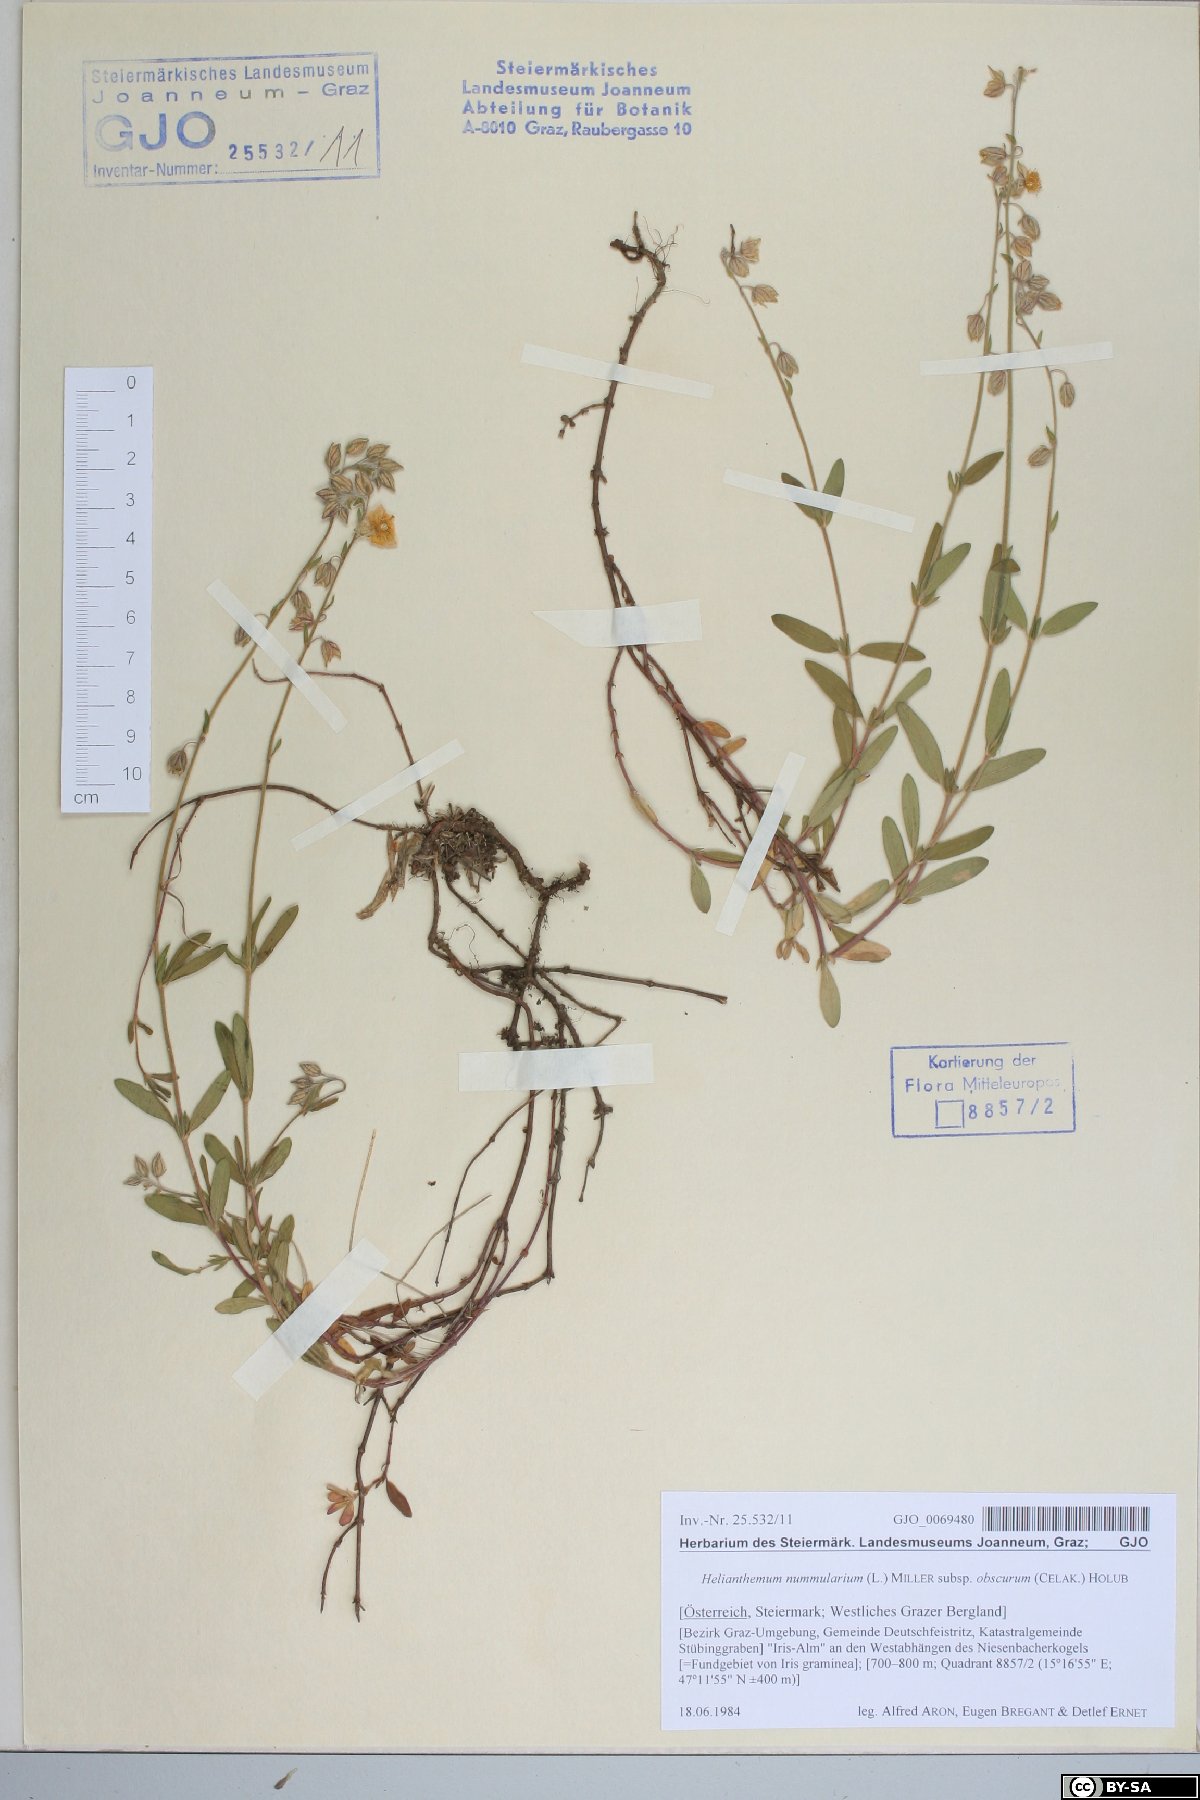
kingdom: Plantae
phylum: Tracheophyta
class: Magnoliopsida
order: Malvales
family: Cistaceae
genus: Helianthemum
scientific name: Helianthemum nummularium
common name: Common rock-rose
